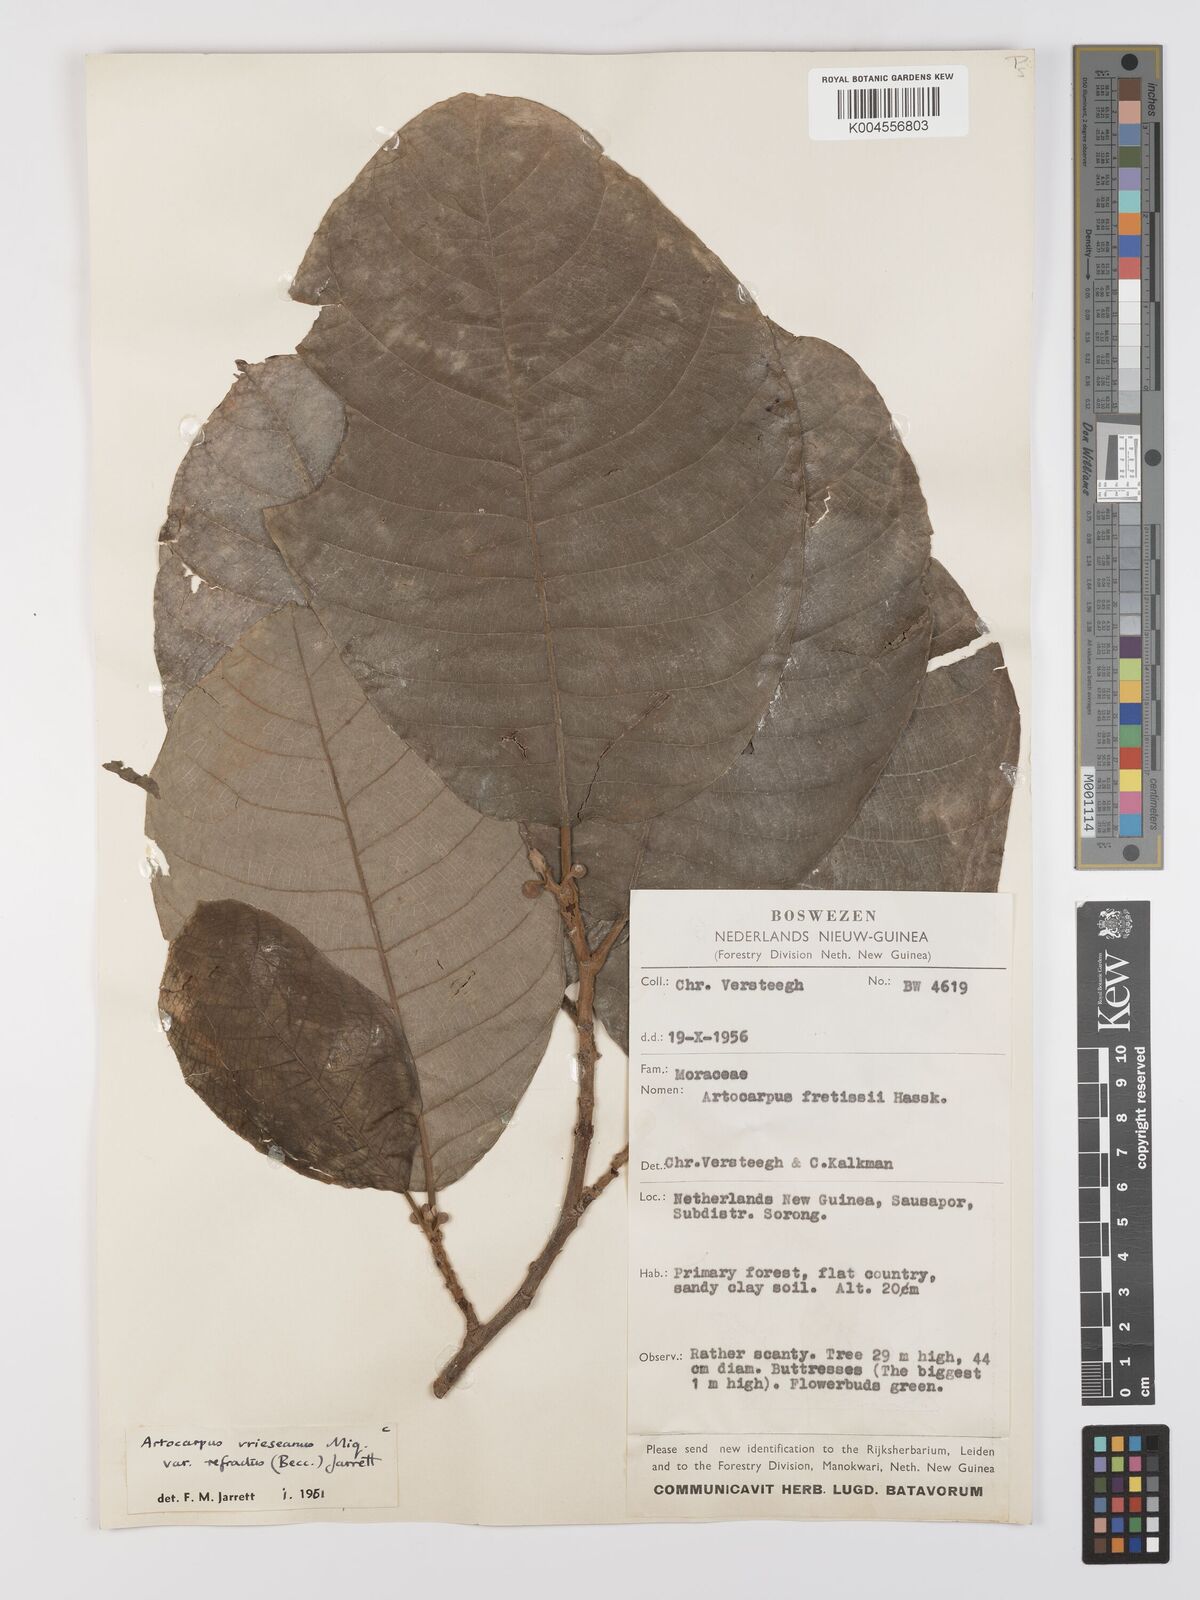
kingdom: Plantae
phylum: Tracheophyta
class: Magnoliopsida
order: Rosales
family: Moraceae
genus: Artocarpus
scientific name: Artocarpus vrieseanus
